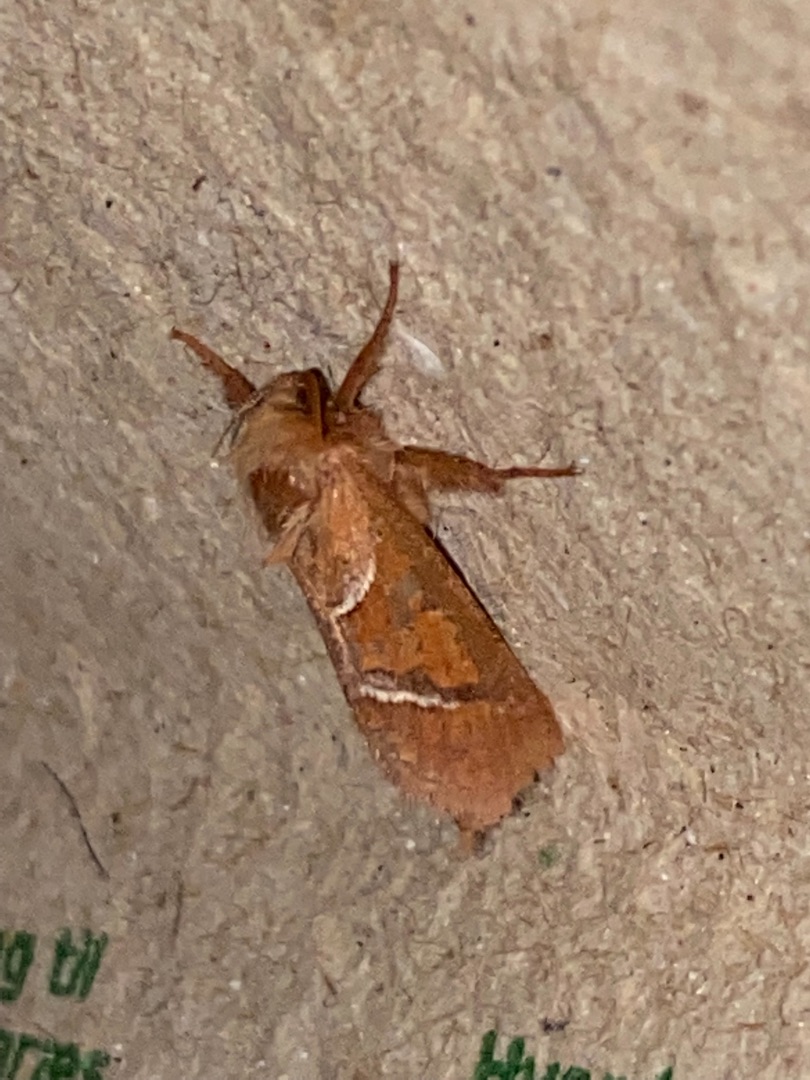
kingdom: Animalia
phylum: Arthropoda
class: Insecta
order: Lepidoptera
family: Hepialidae
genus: Triodia
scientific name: Triodia sylvina
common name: Skræpperodæder
